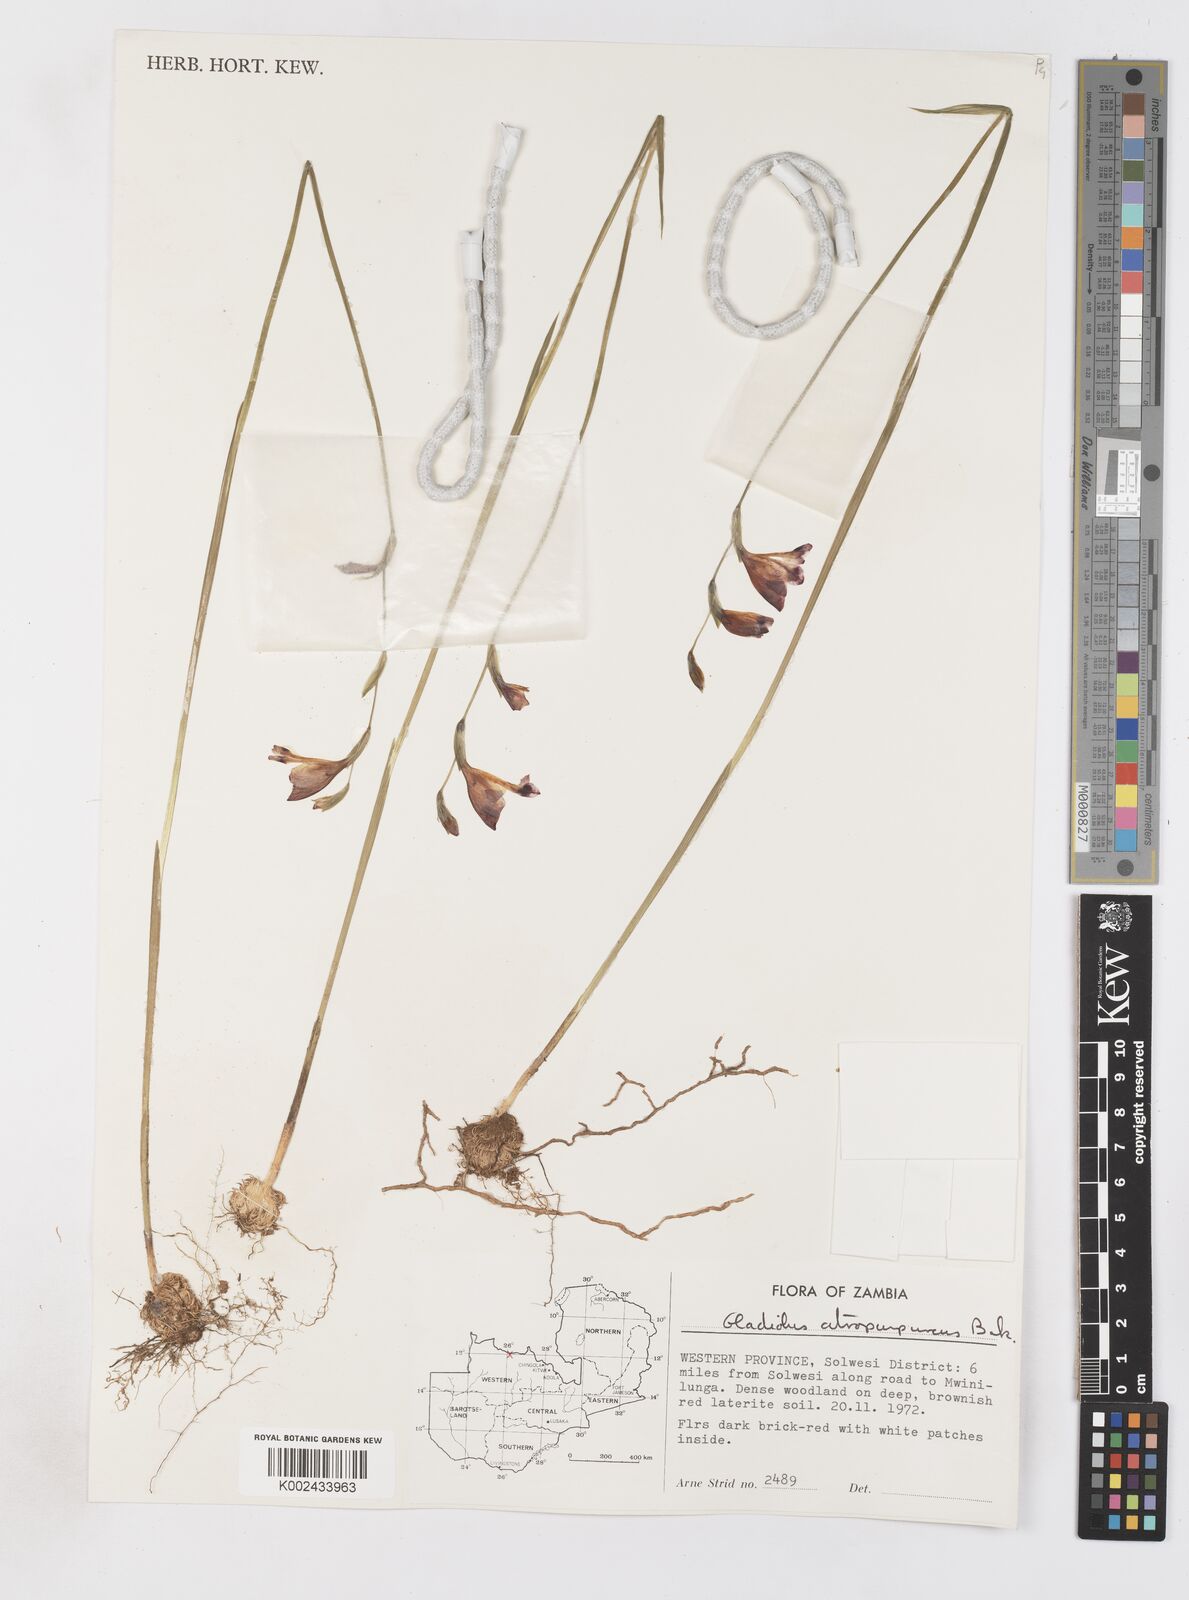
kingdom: Plantae
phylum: Tracheophyta
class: Liliopsida
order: Asparagales
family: Iridaceae
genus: Gladiolus
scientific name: Gladiolus atropurpureus
